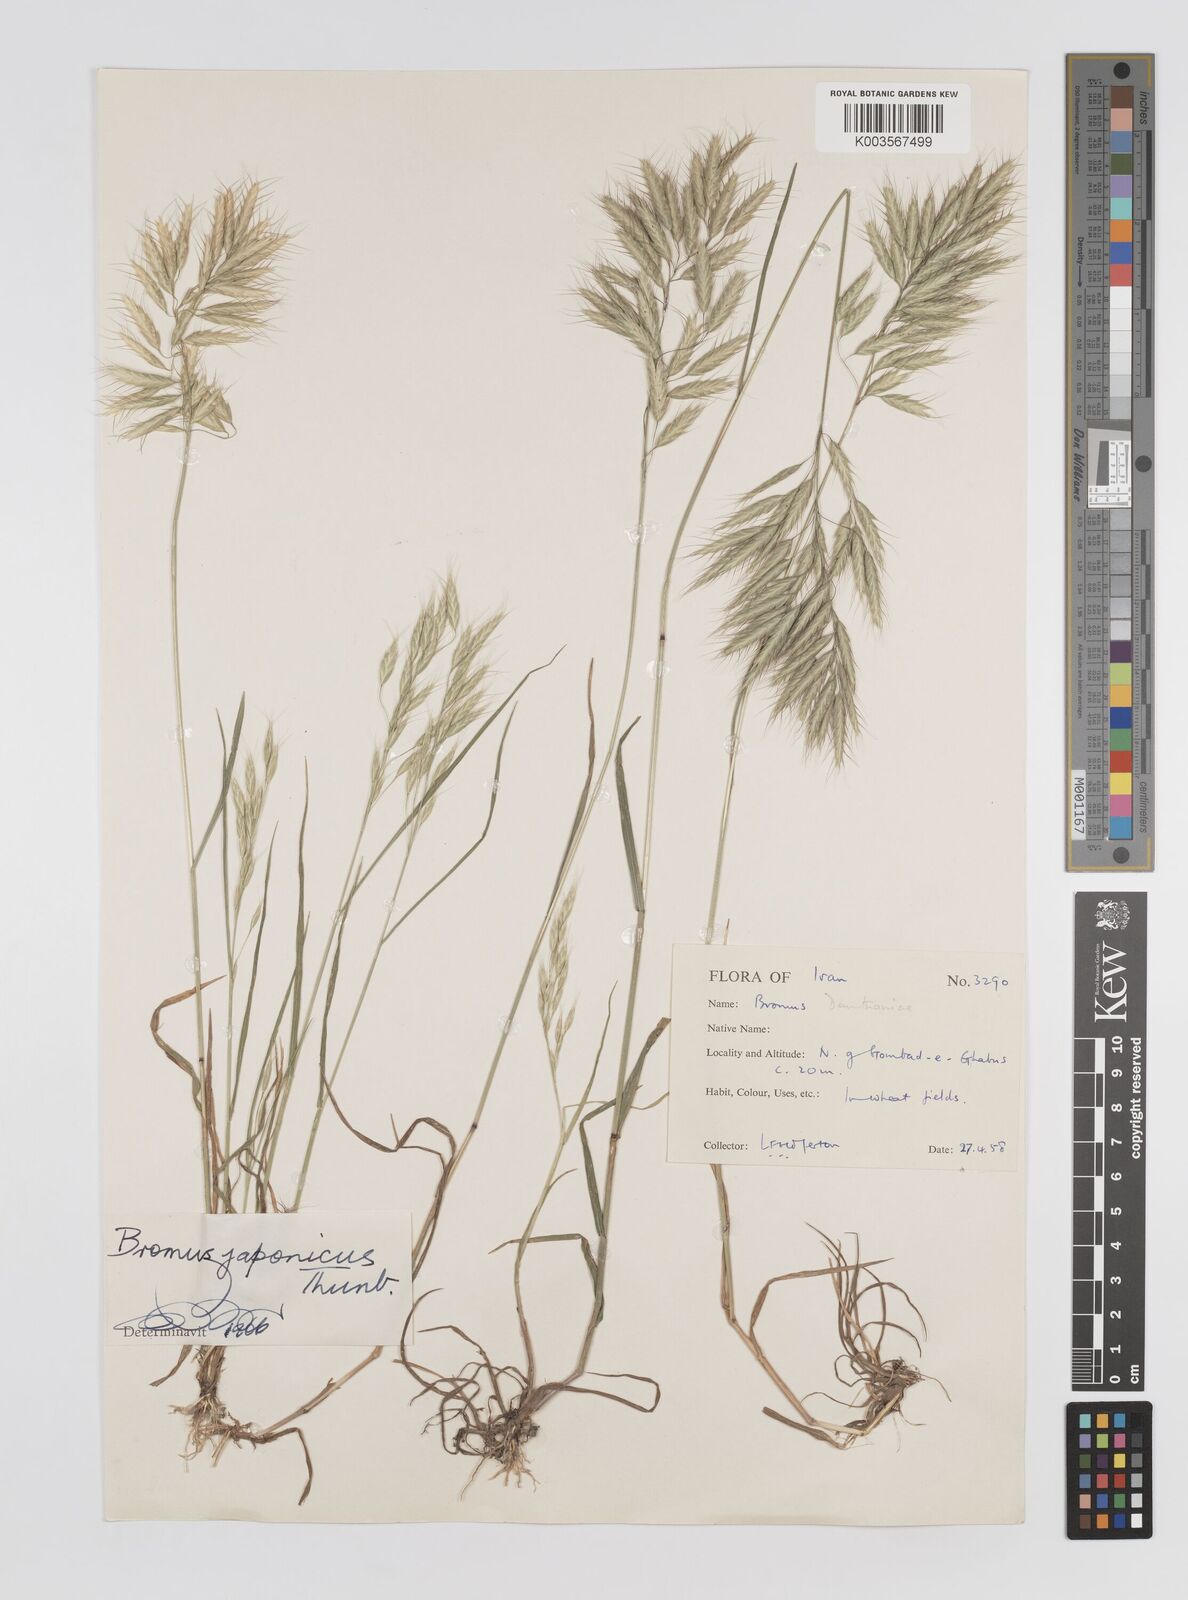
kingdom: Plantae
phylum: Tracheophyta
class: Liliopsida
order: Poales
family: Poaceae
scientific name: Poaceae
